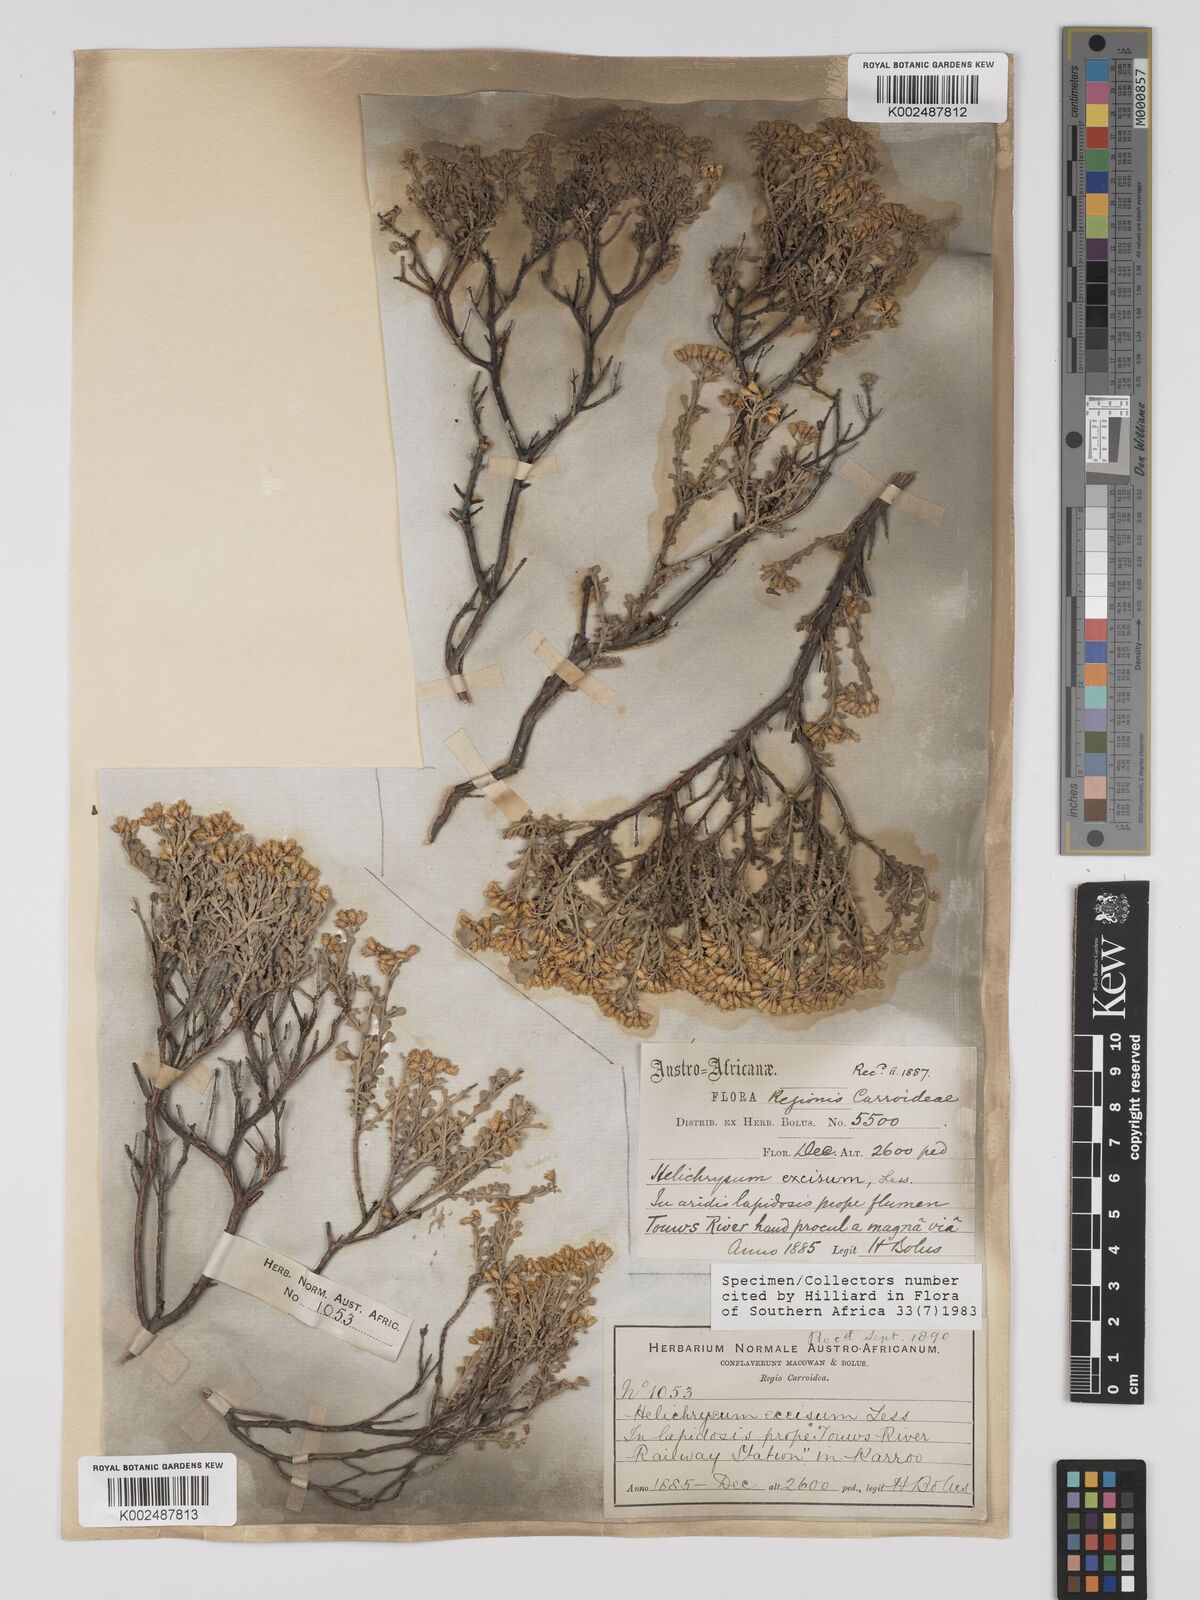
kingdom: Plantae
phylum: Tracheophyta
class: Magnoliopsida
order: Asterales
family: Asteraceae
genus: Helichrysum
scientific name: Helichrysum excisum
